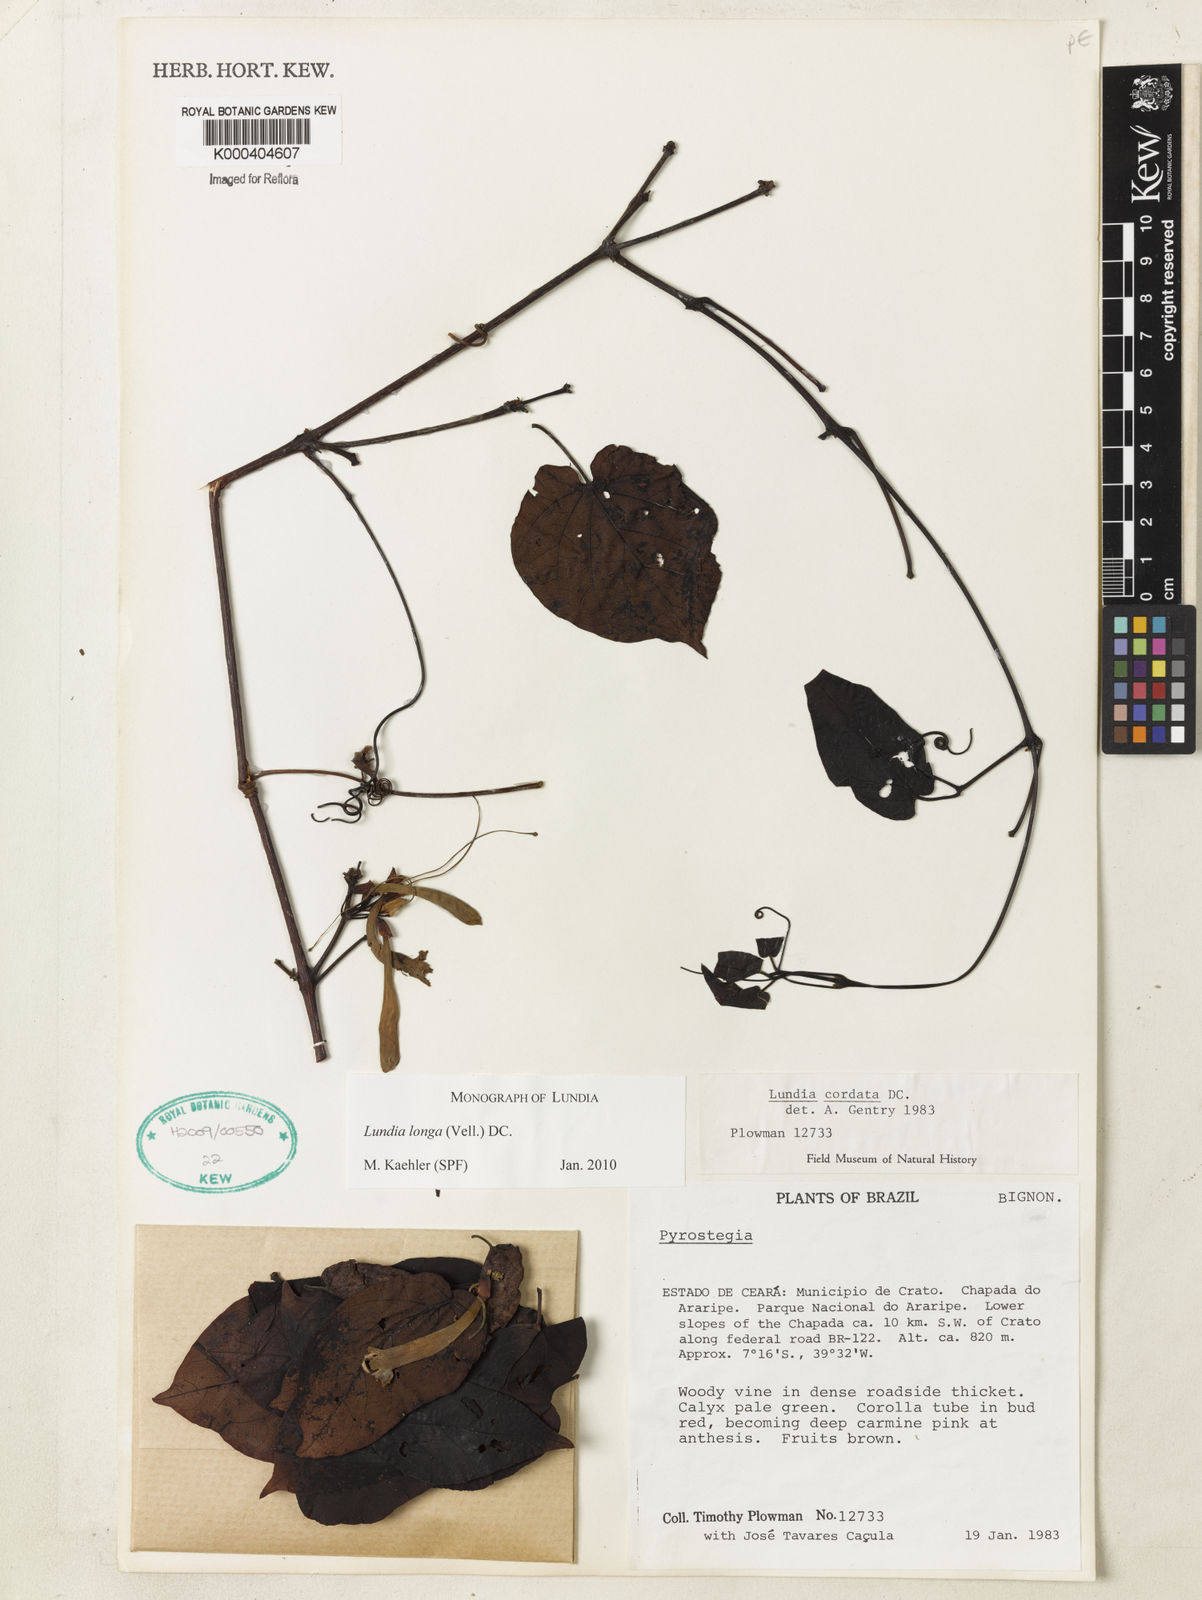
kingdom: Plantae
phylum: Tracheophyta
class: Magnoliopsida
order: Lamiales
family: Bignoniaceae
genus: Lundia
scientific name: Lundia longa
